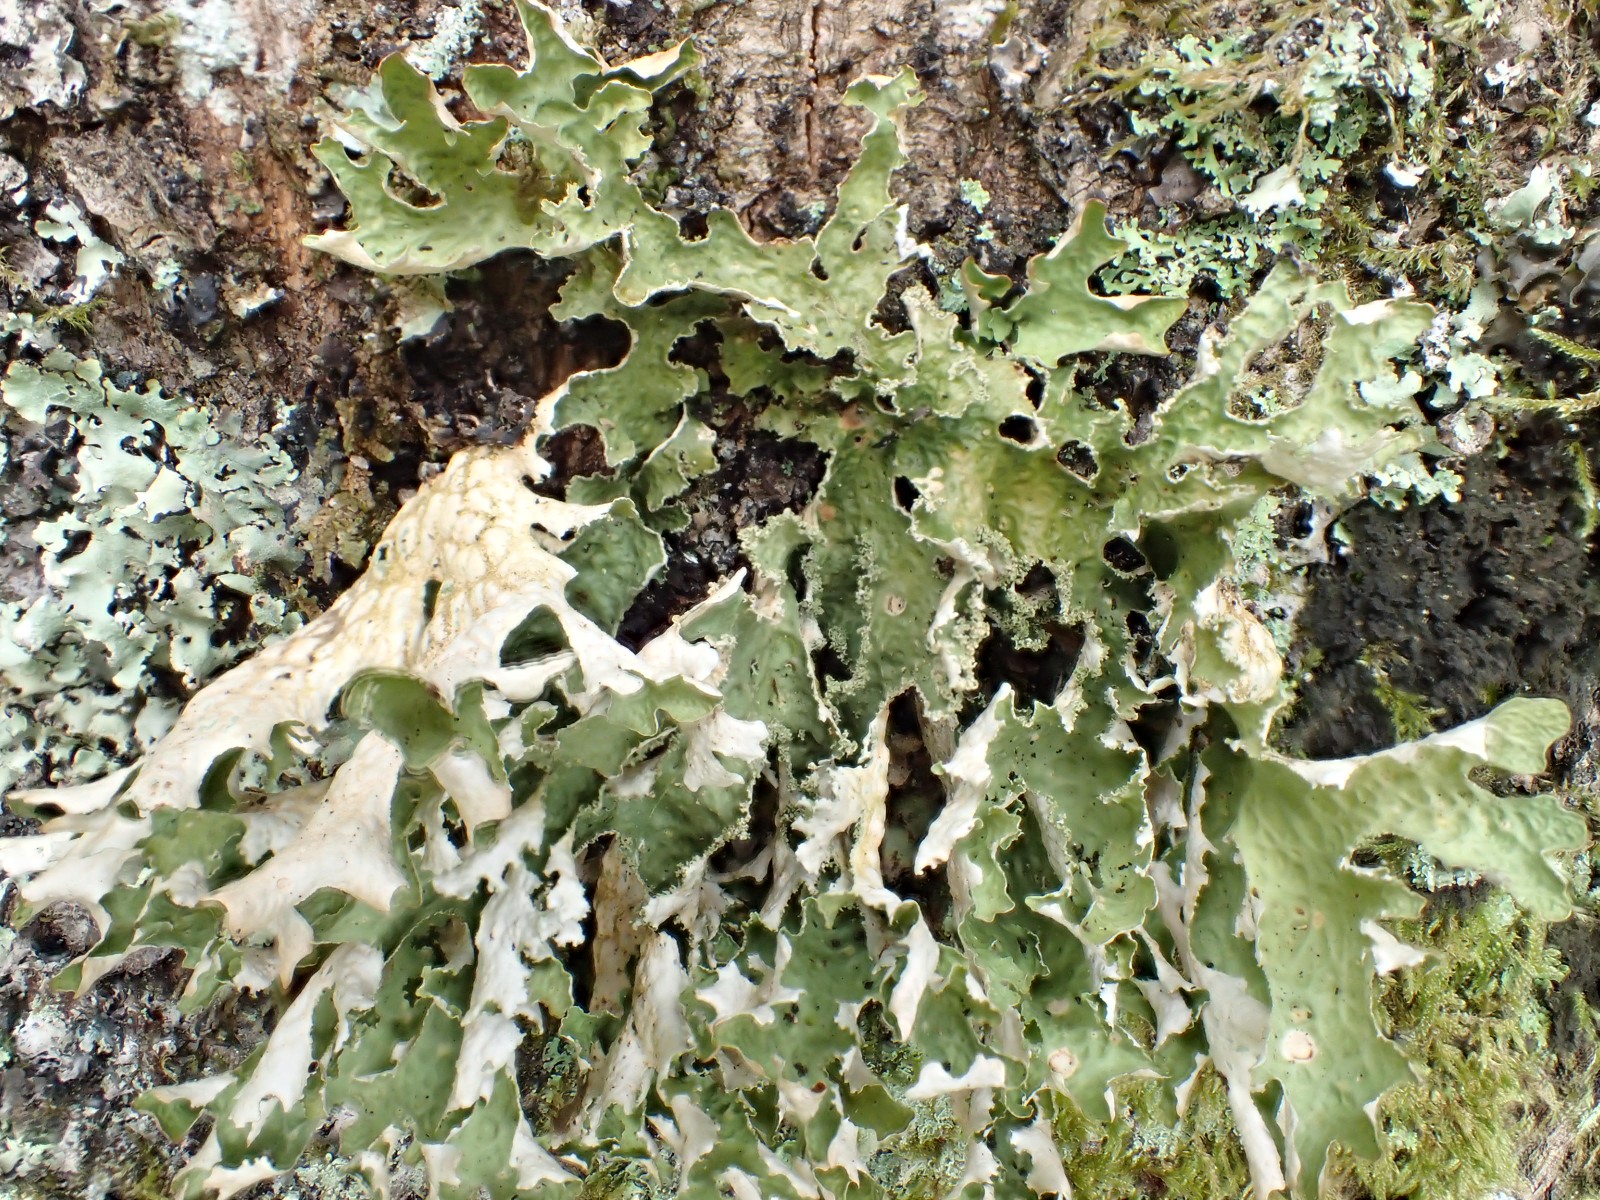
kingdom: Fungi
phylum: Ascomycota
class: Lecanoromycetes
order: Peltigerales
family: Lobariaceae
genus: Lobaria
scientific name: Lobaria pulmonaria
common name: almindelig lungelav
